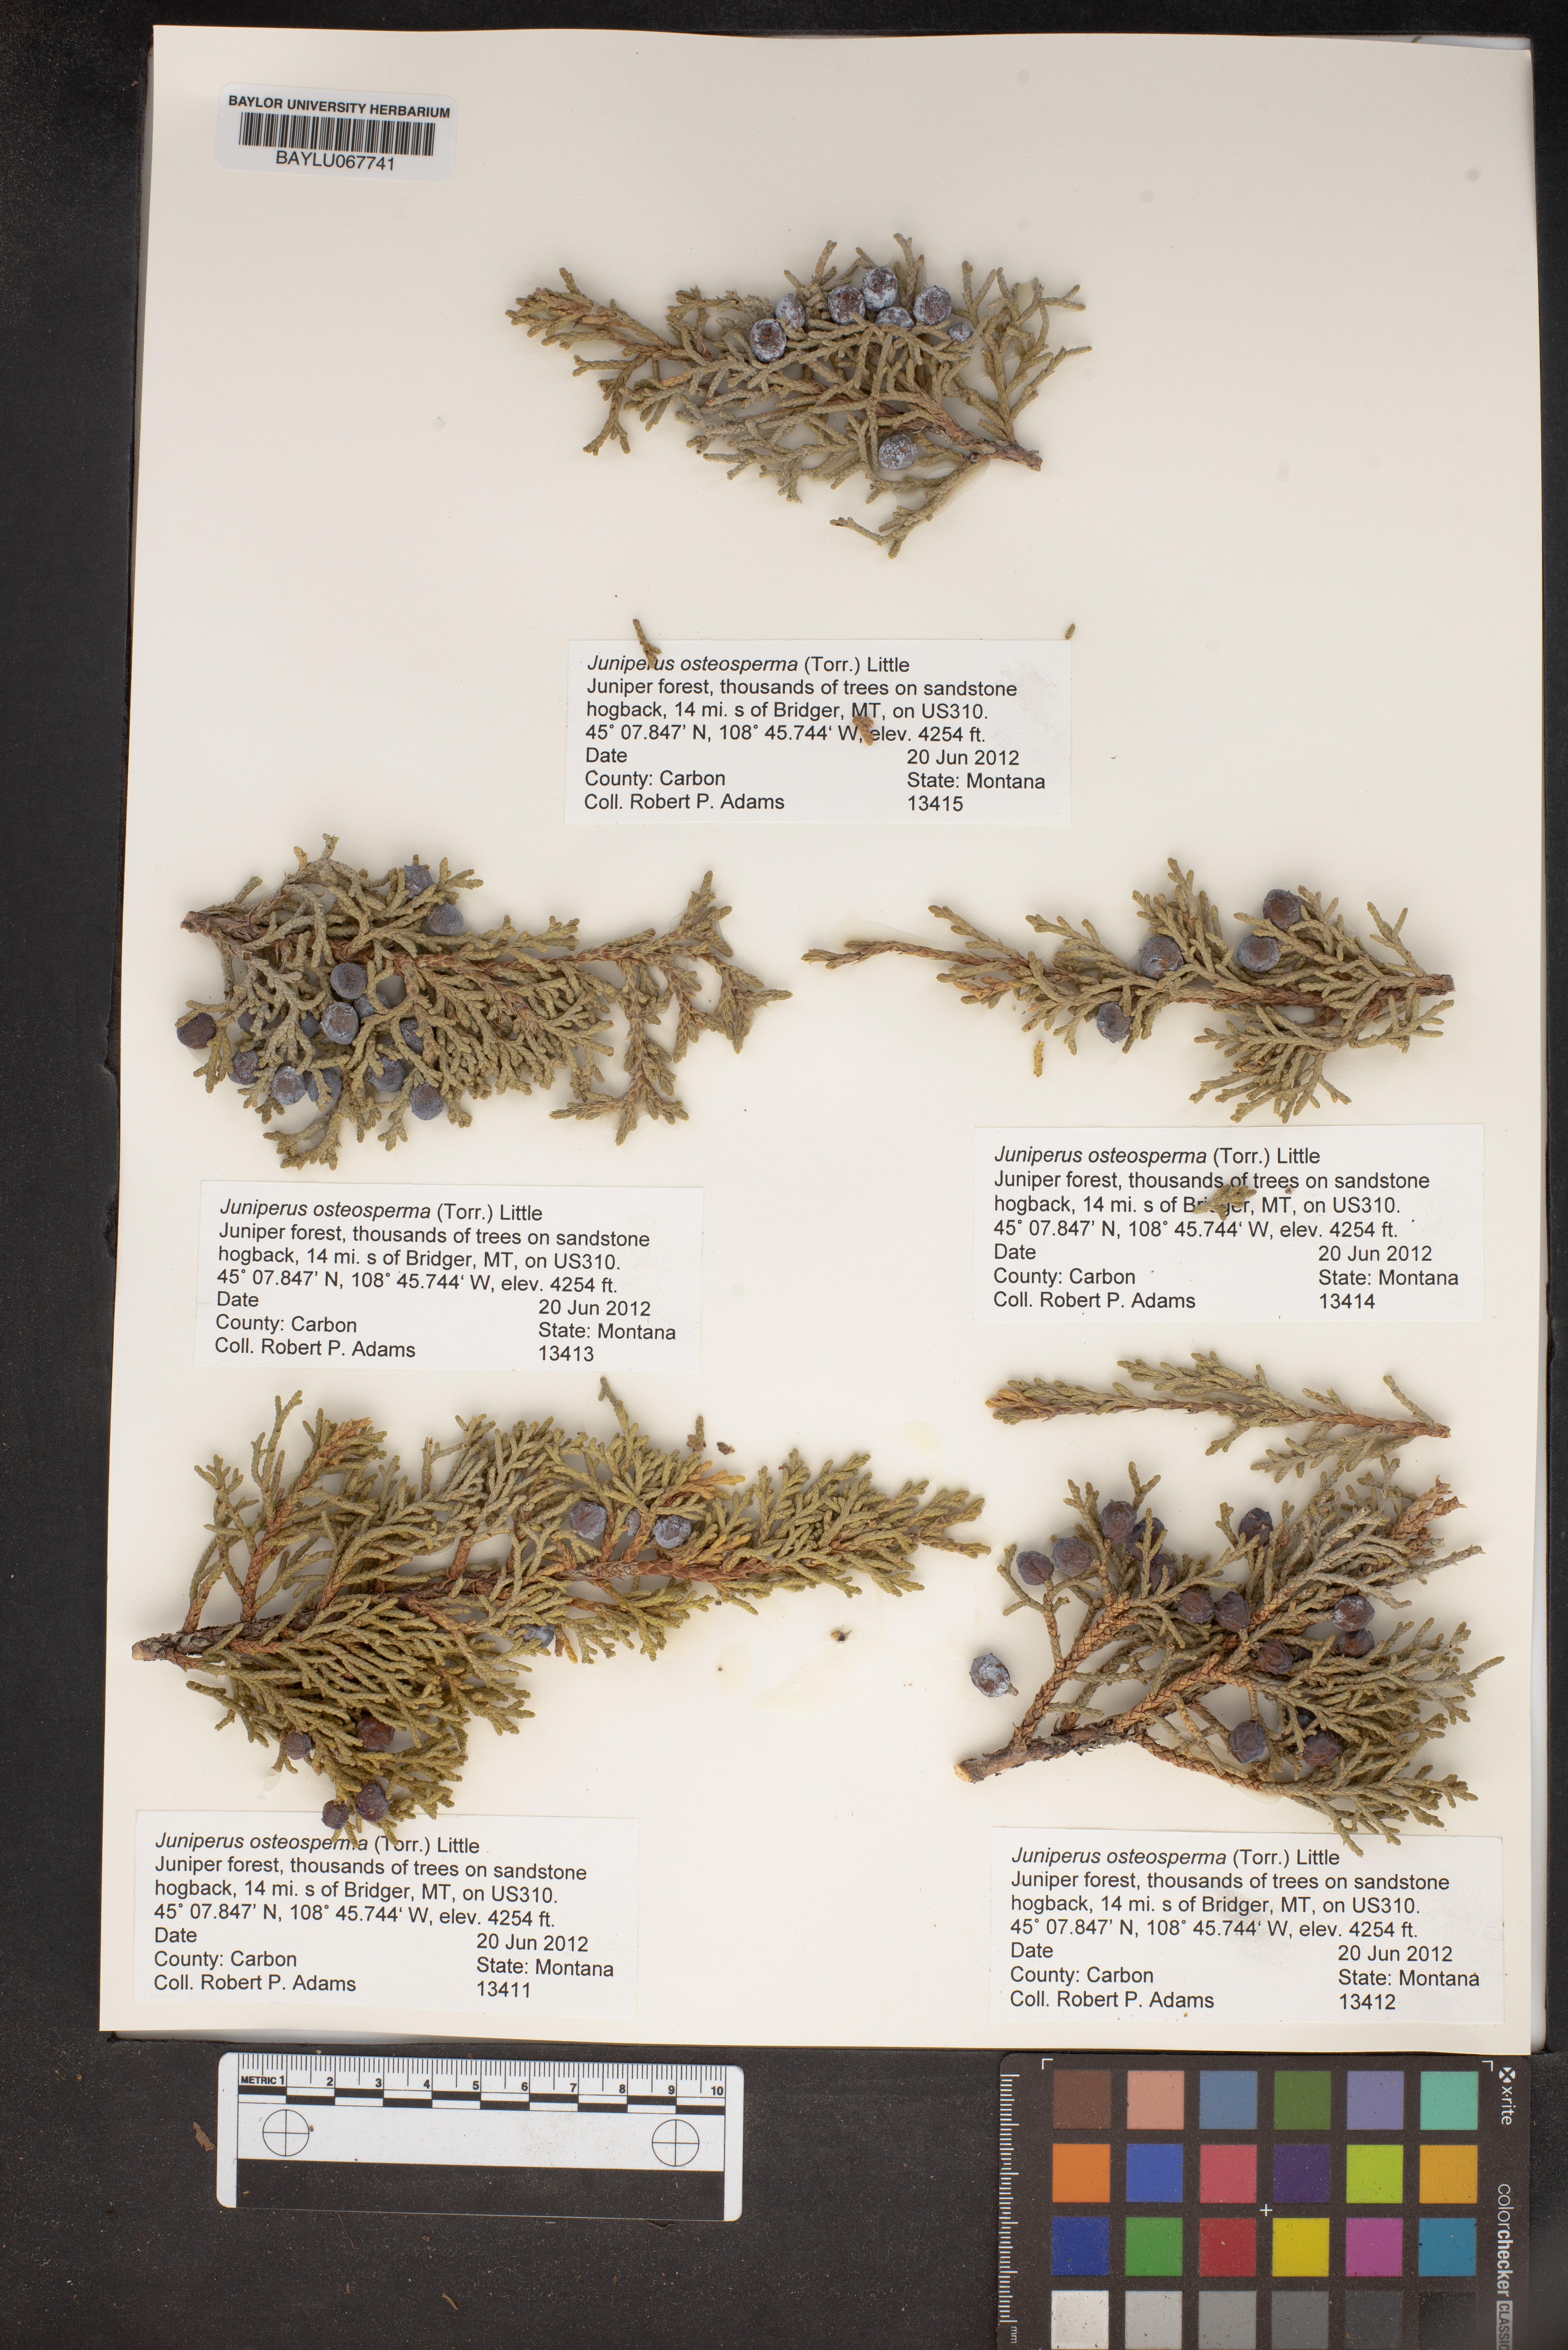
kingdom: Plantae
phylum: Tracheophyta
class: Pinopsida
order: Pinales
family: Cupressaceae
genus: Juniperus
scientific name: Juniperus osteosperma
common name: Utah juniper
